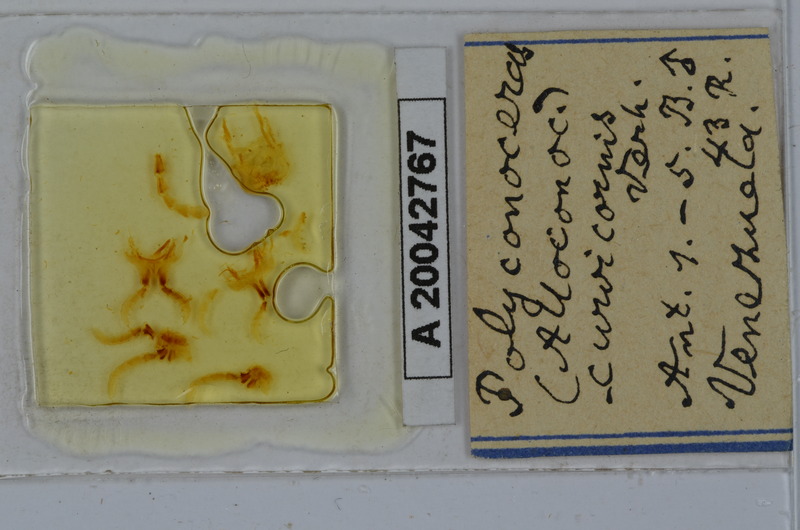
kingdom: Animalia
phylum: Arthropoda
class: Diplopoda
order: Spirobolida
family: Rhinocricidae
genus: Salpidobolus
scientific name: Salpidobolus curvicornis
